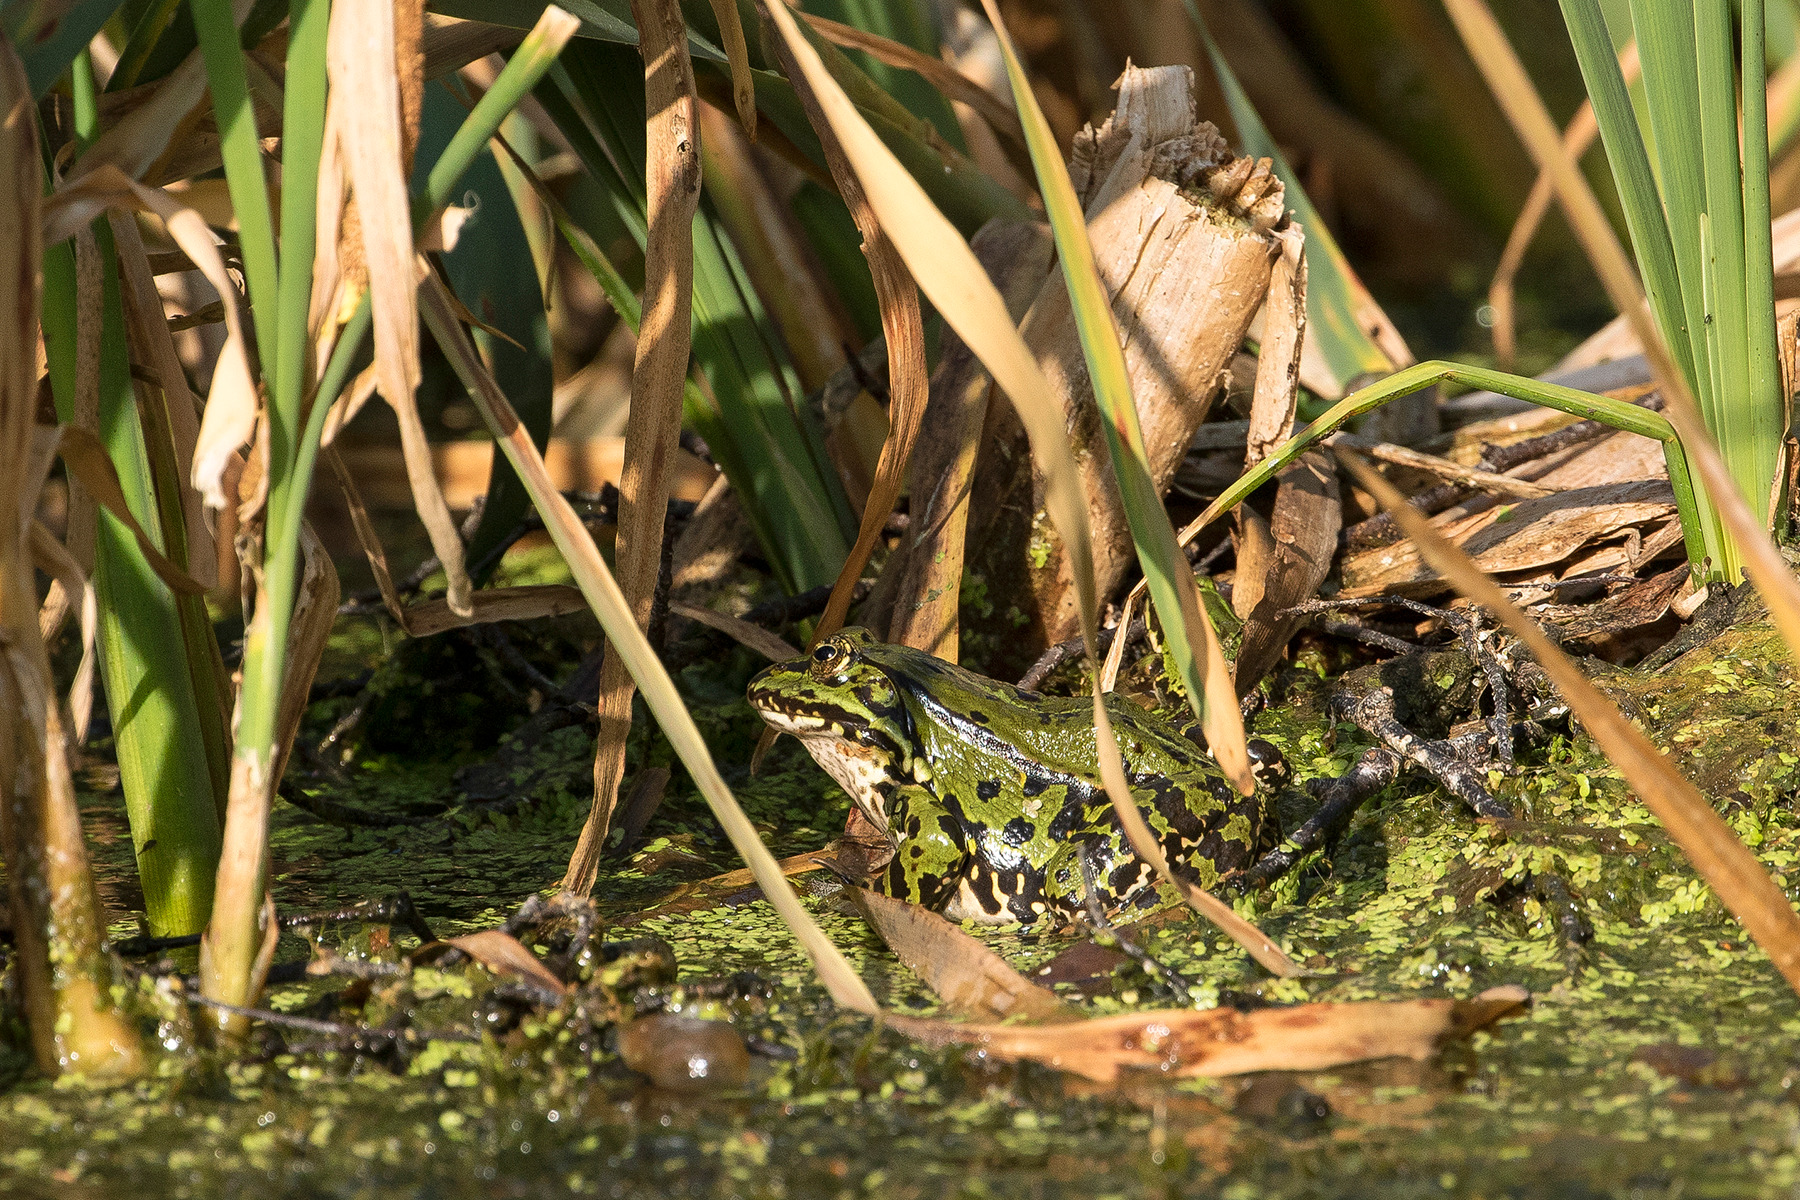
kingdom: Animalia
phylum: Chordata
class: Amphibia
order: Anura
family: Ranidae
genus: Pelophylax
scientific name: Pelophylax lessonae
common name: Grøn frø
